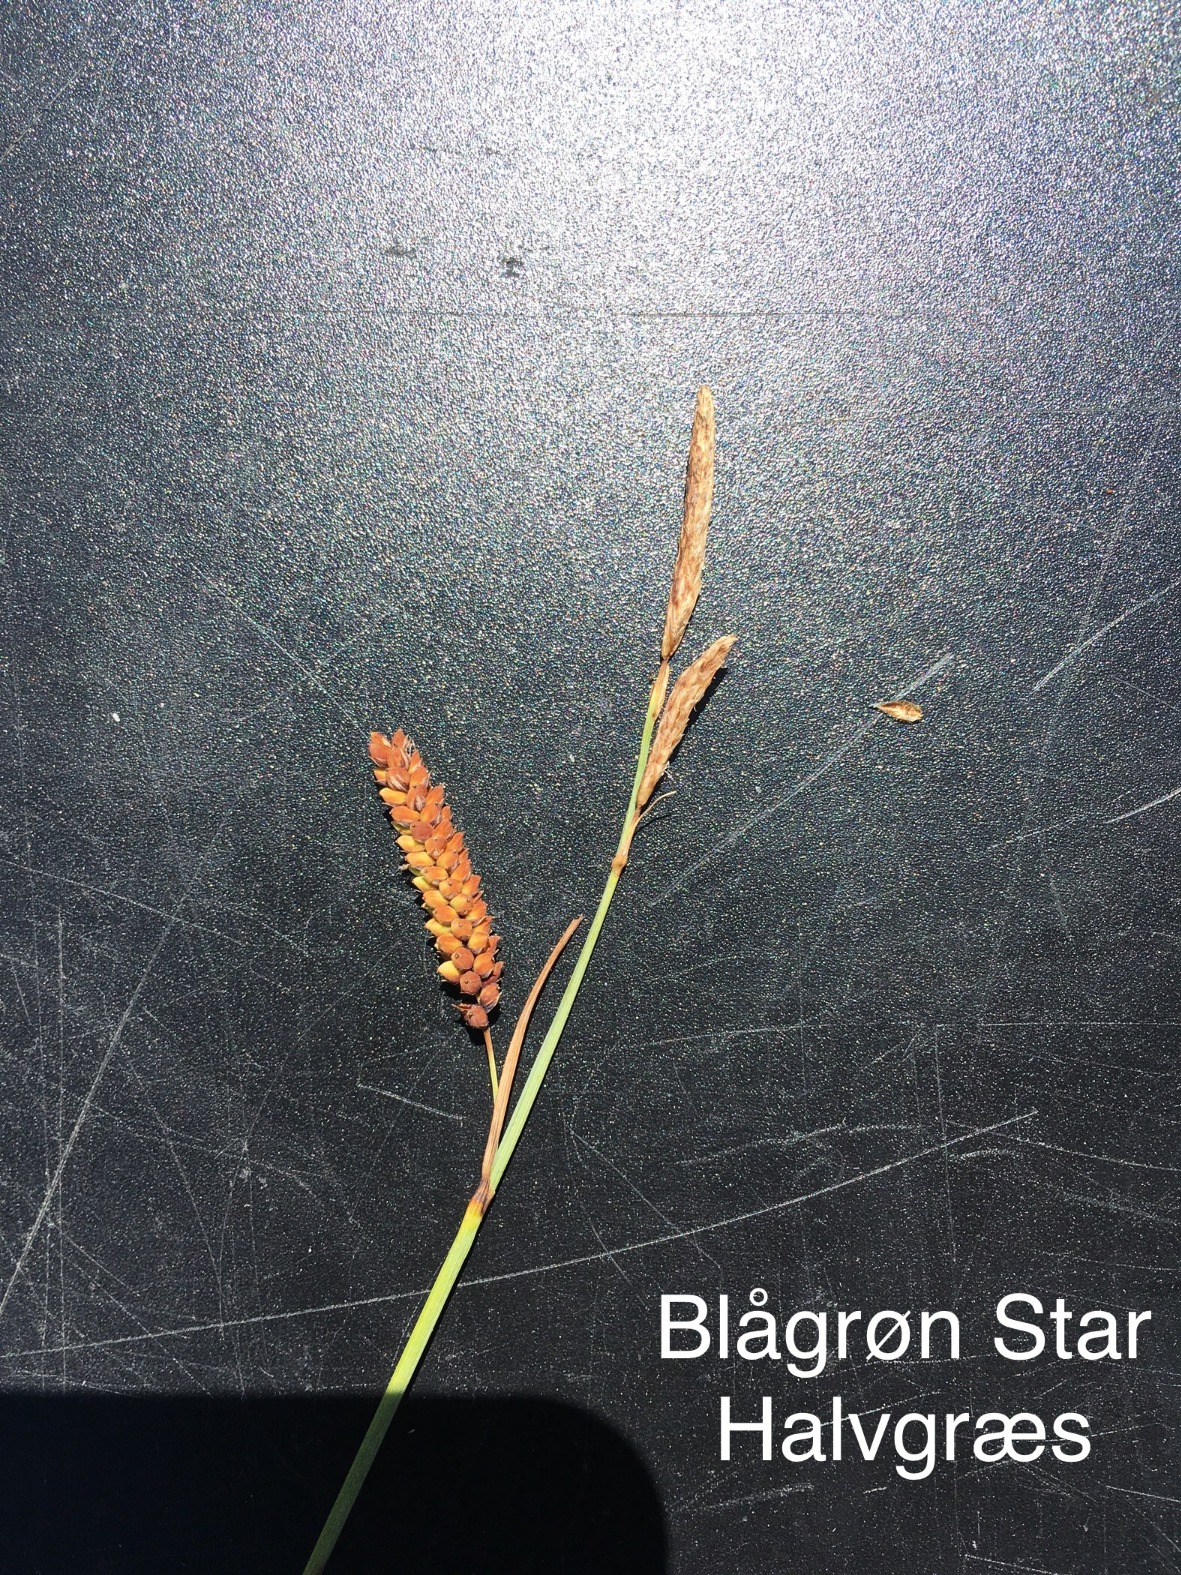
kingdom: Plantae
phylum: Tracheophyta
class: Liliopsida
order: Poales
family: Cyperaceae
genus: Carex
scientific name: Carex flacca
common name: Blågrøn star
